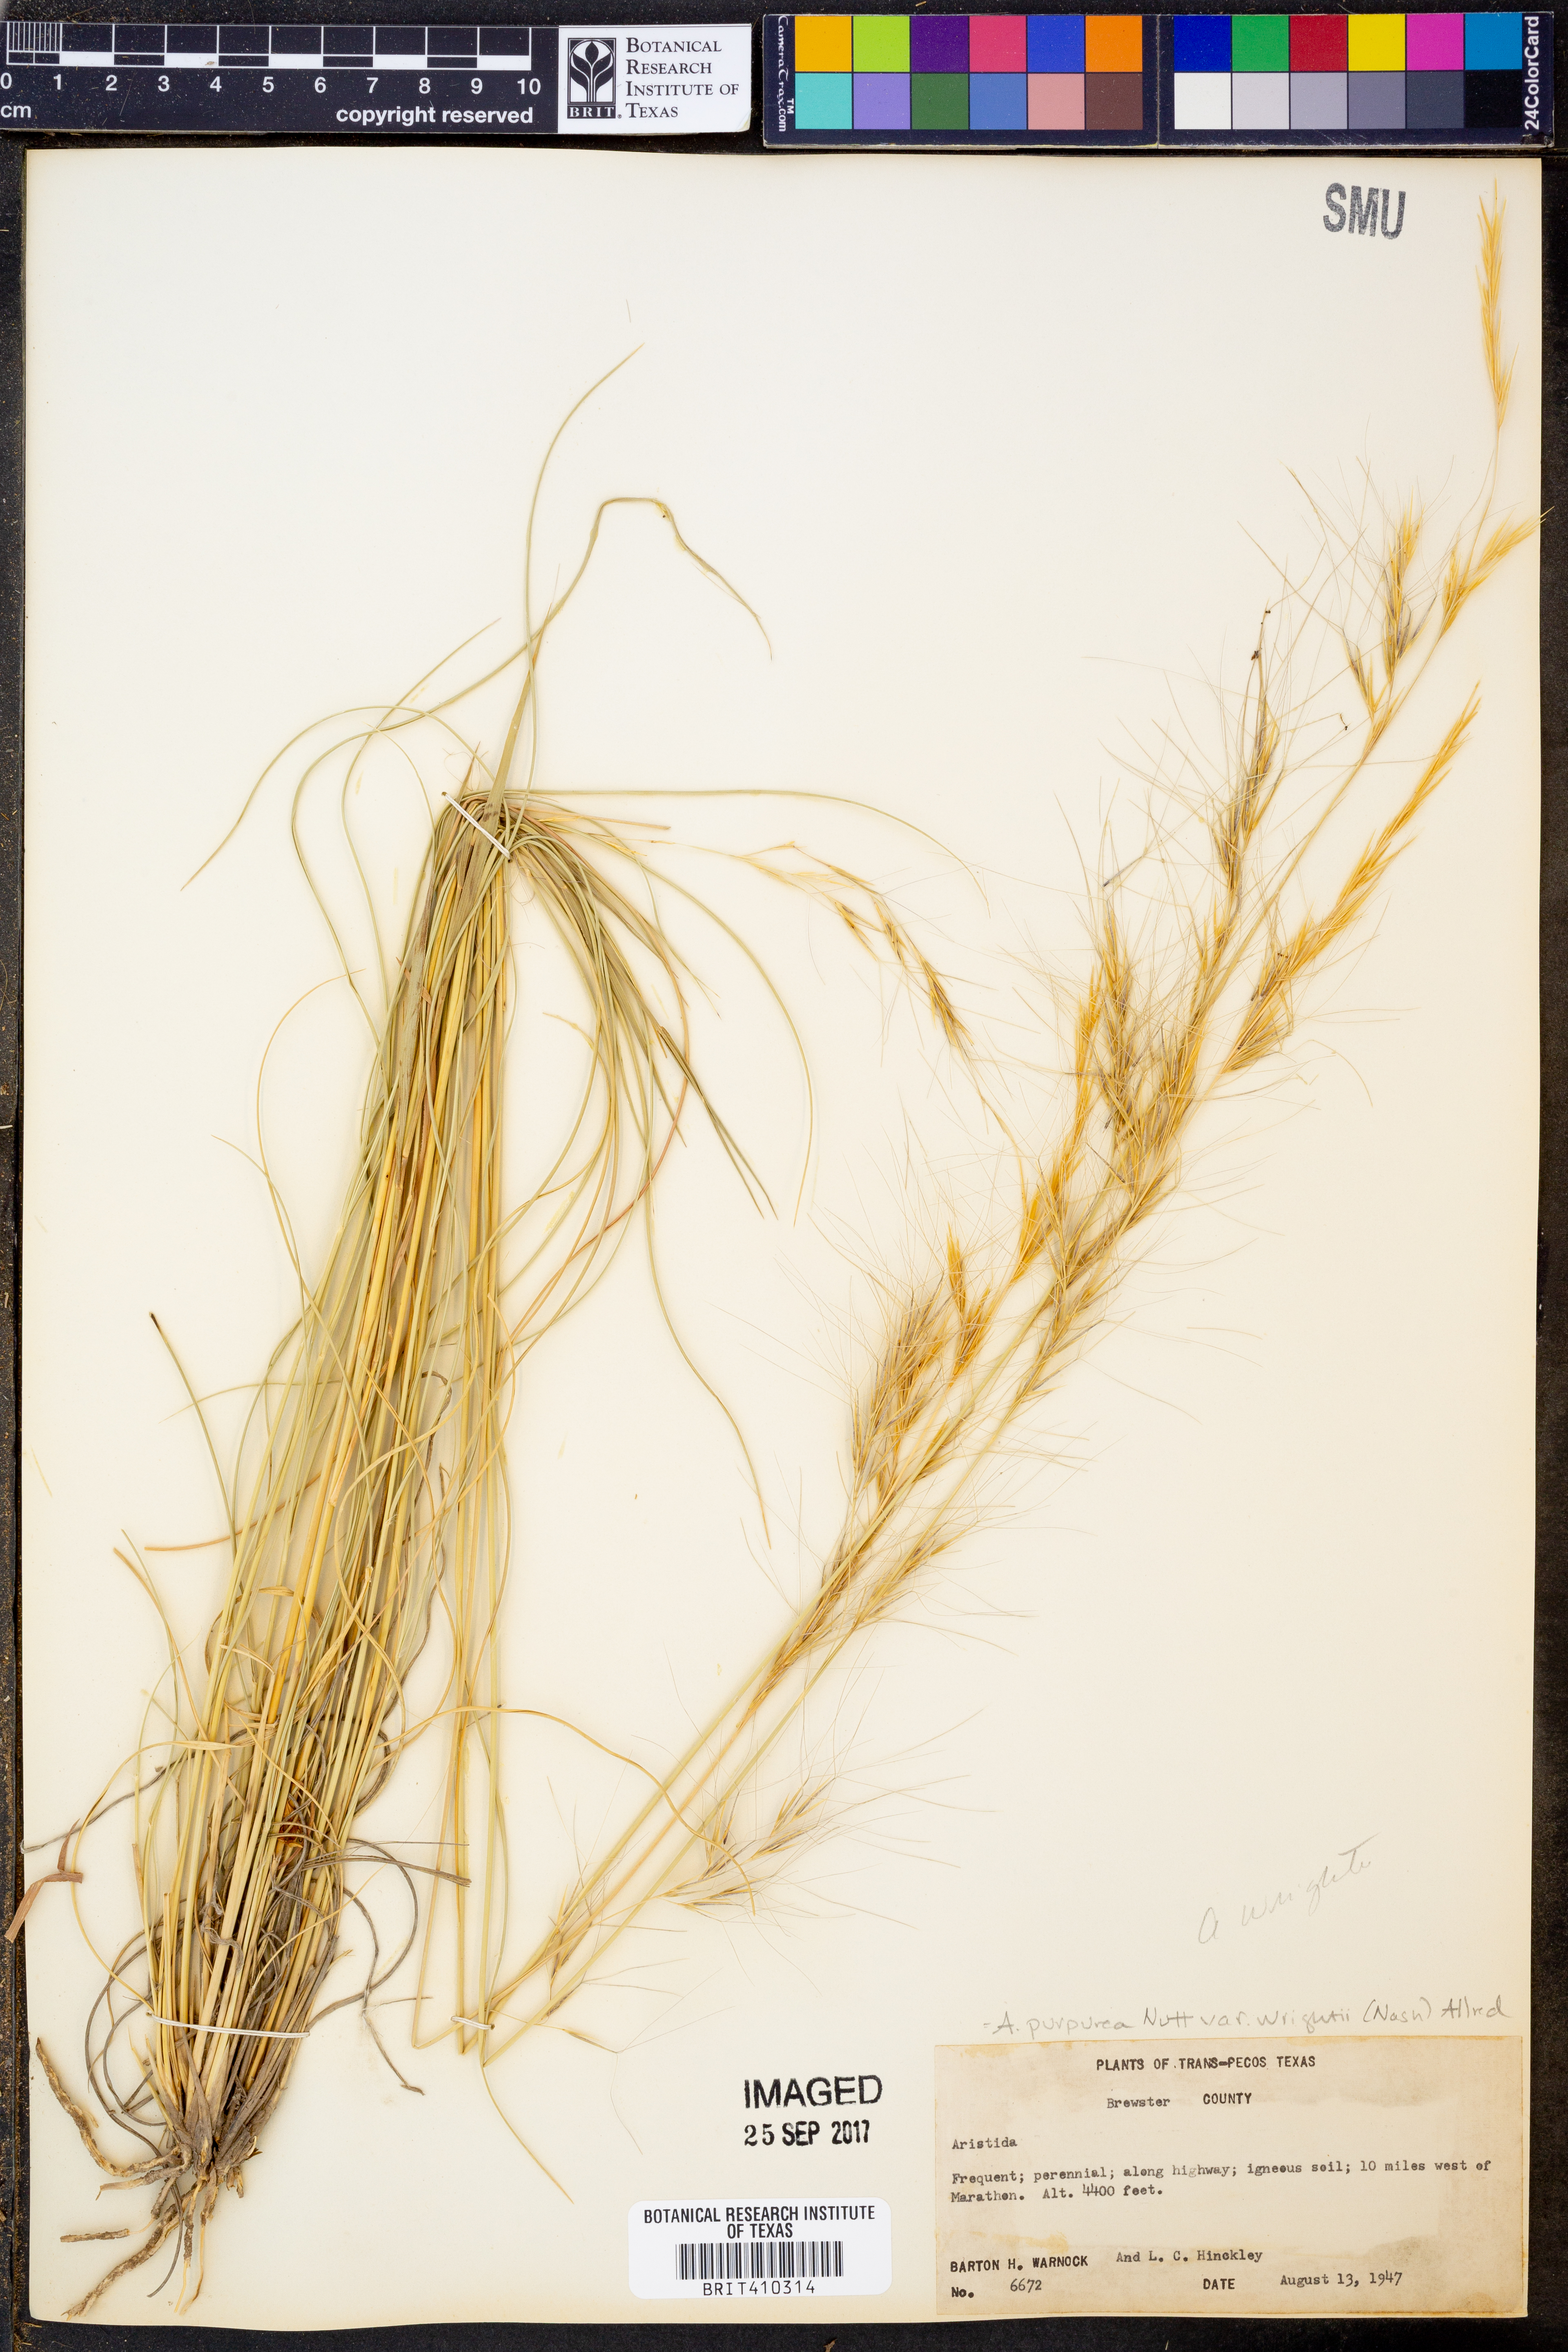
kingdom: Plantae
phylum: Tracheophyta
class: Liliopsida
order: Poales
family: Poaceae
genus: Aristida
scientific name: Aristida
